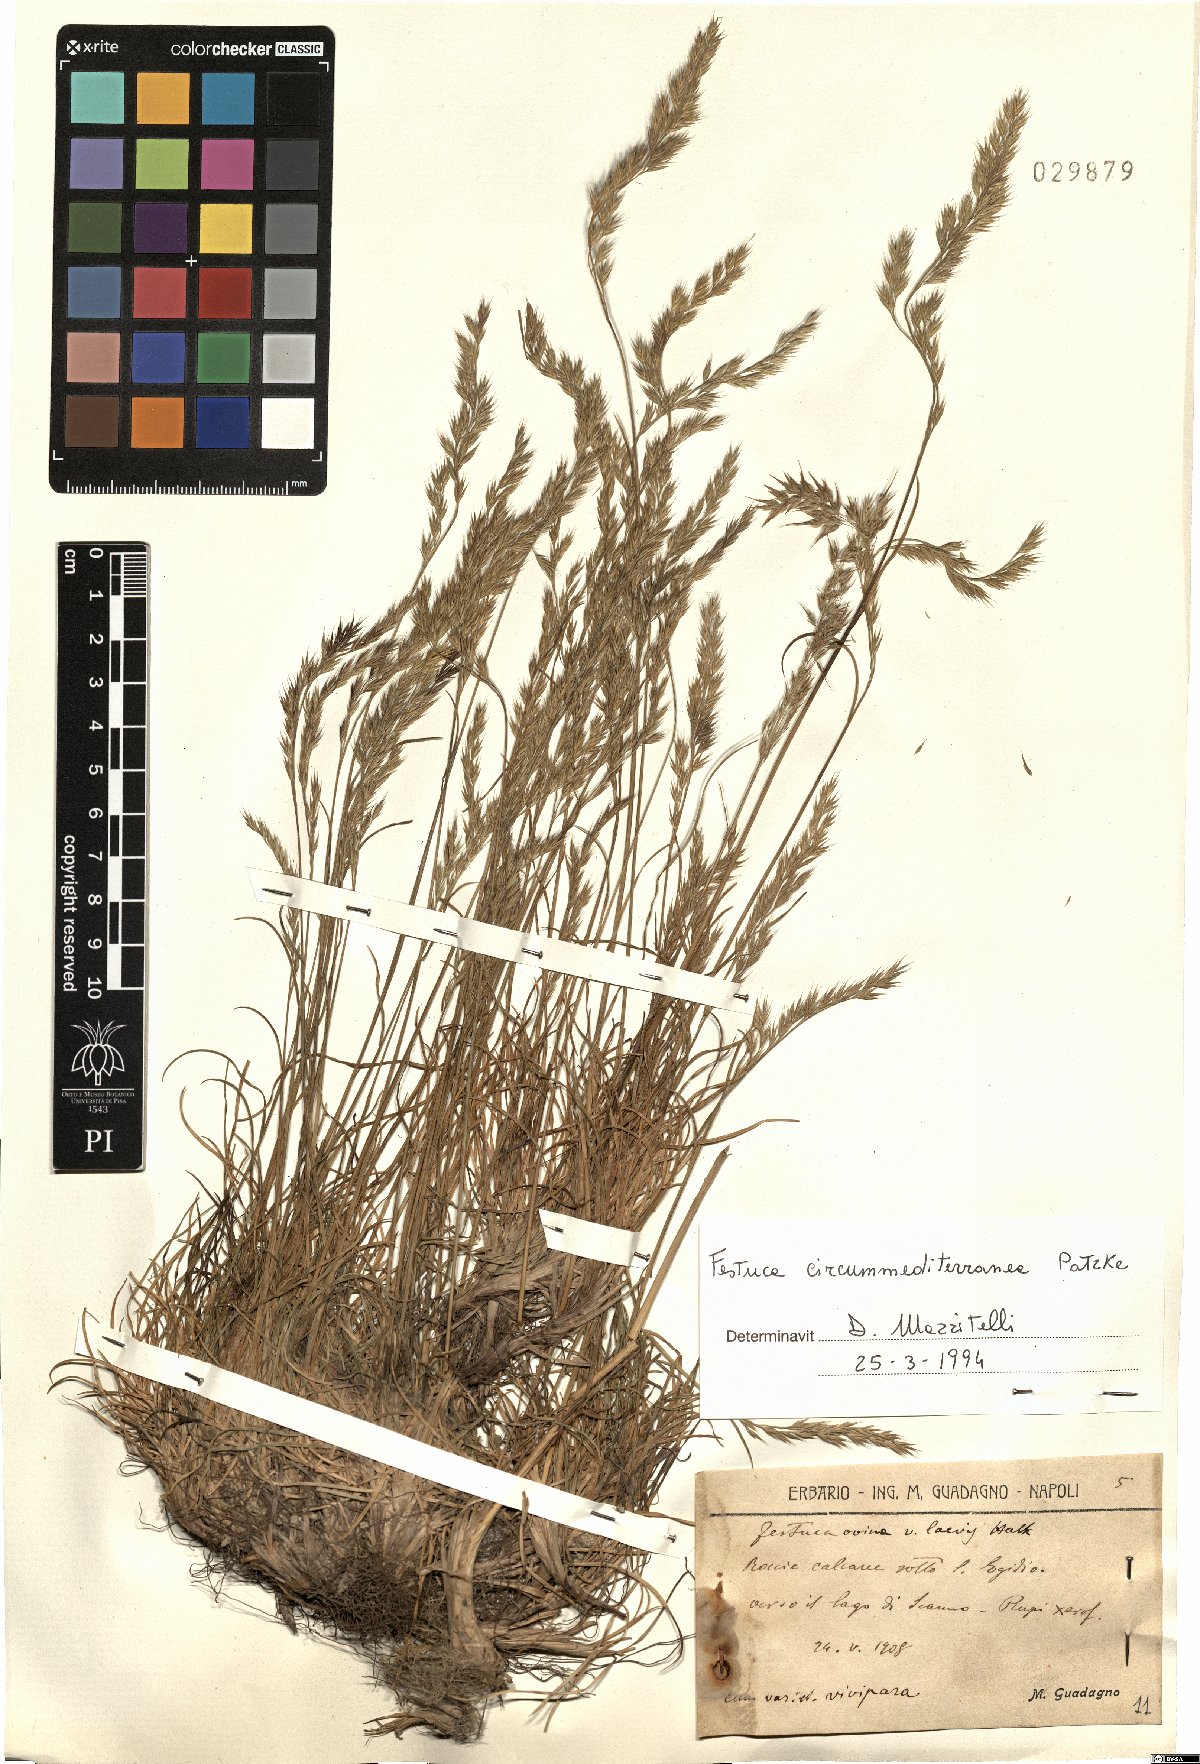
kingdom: Plantae
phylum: Tracheophyta
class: Liliopsida
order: Poales
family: Poaceae
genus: Festuca
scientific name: Festuca circummediterranea
